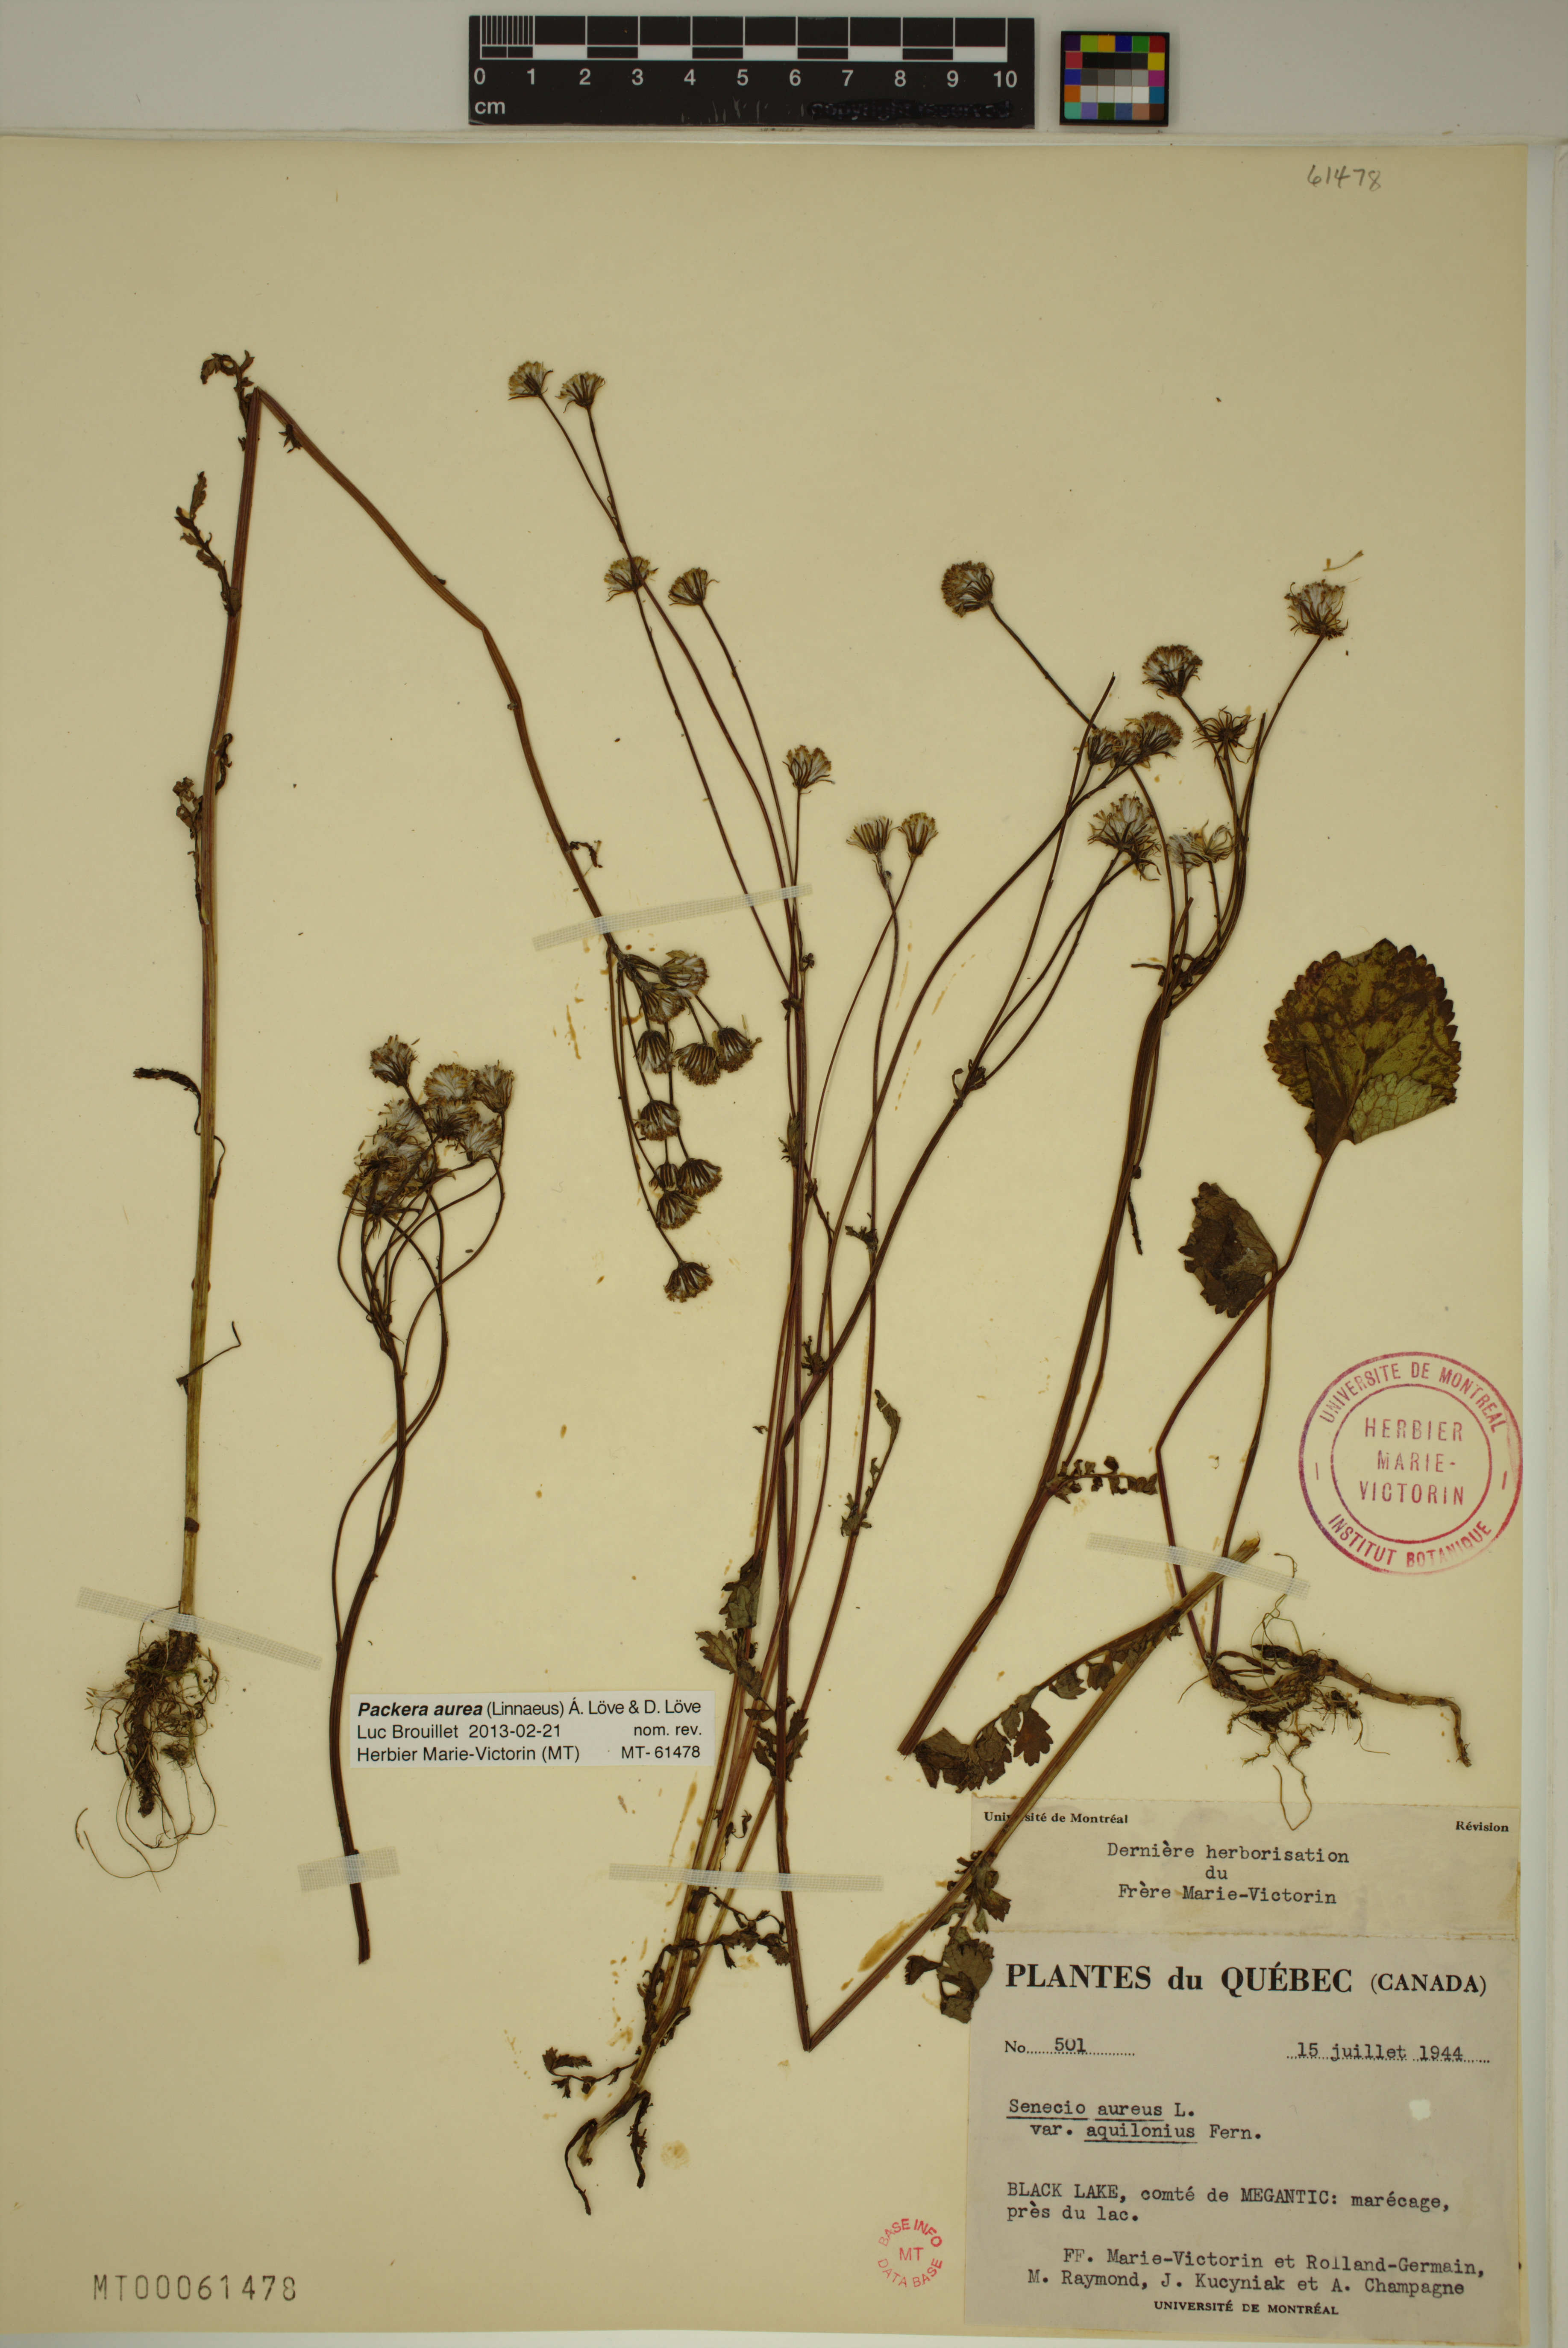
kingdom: Plantae
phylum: Tracheophyta
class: Magnoliopsida
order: Asterales
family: Asteraceae
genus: Packera
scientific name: Packera aurea
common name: Golden groundsel
